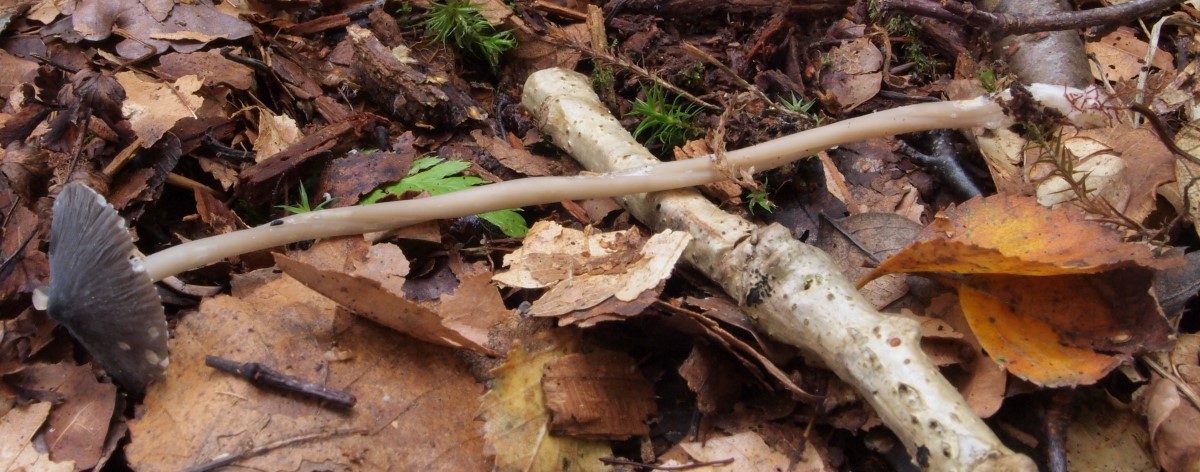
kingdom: Fungi
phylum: Basidiomycota
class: Agaricomycetes
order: Agaricales
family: Mycenaceae
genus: Mycena
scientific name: Mycena megaspora
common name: brusk-huesvamp
